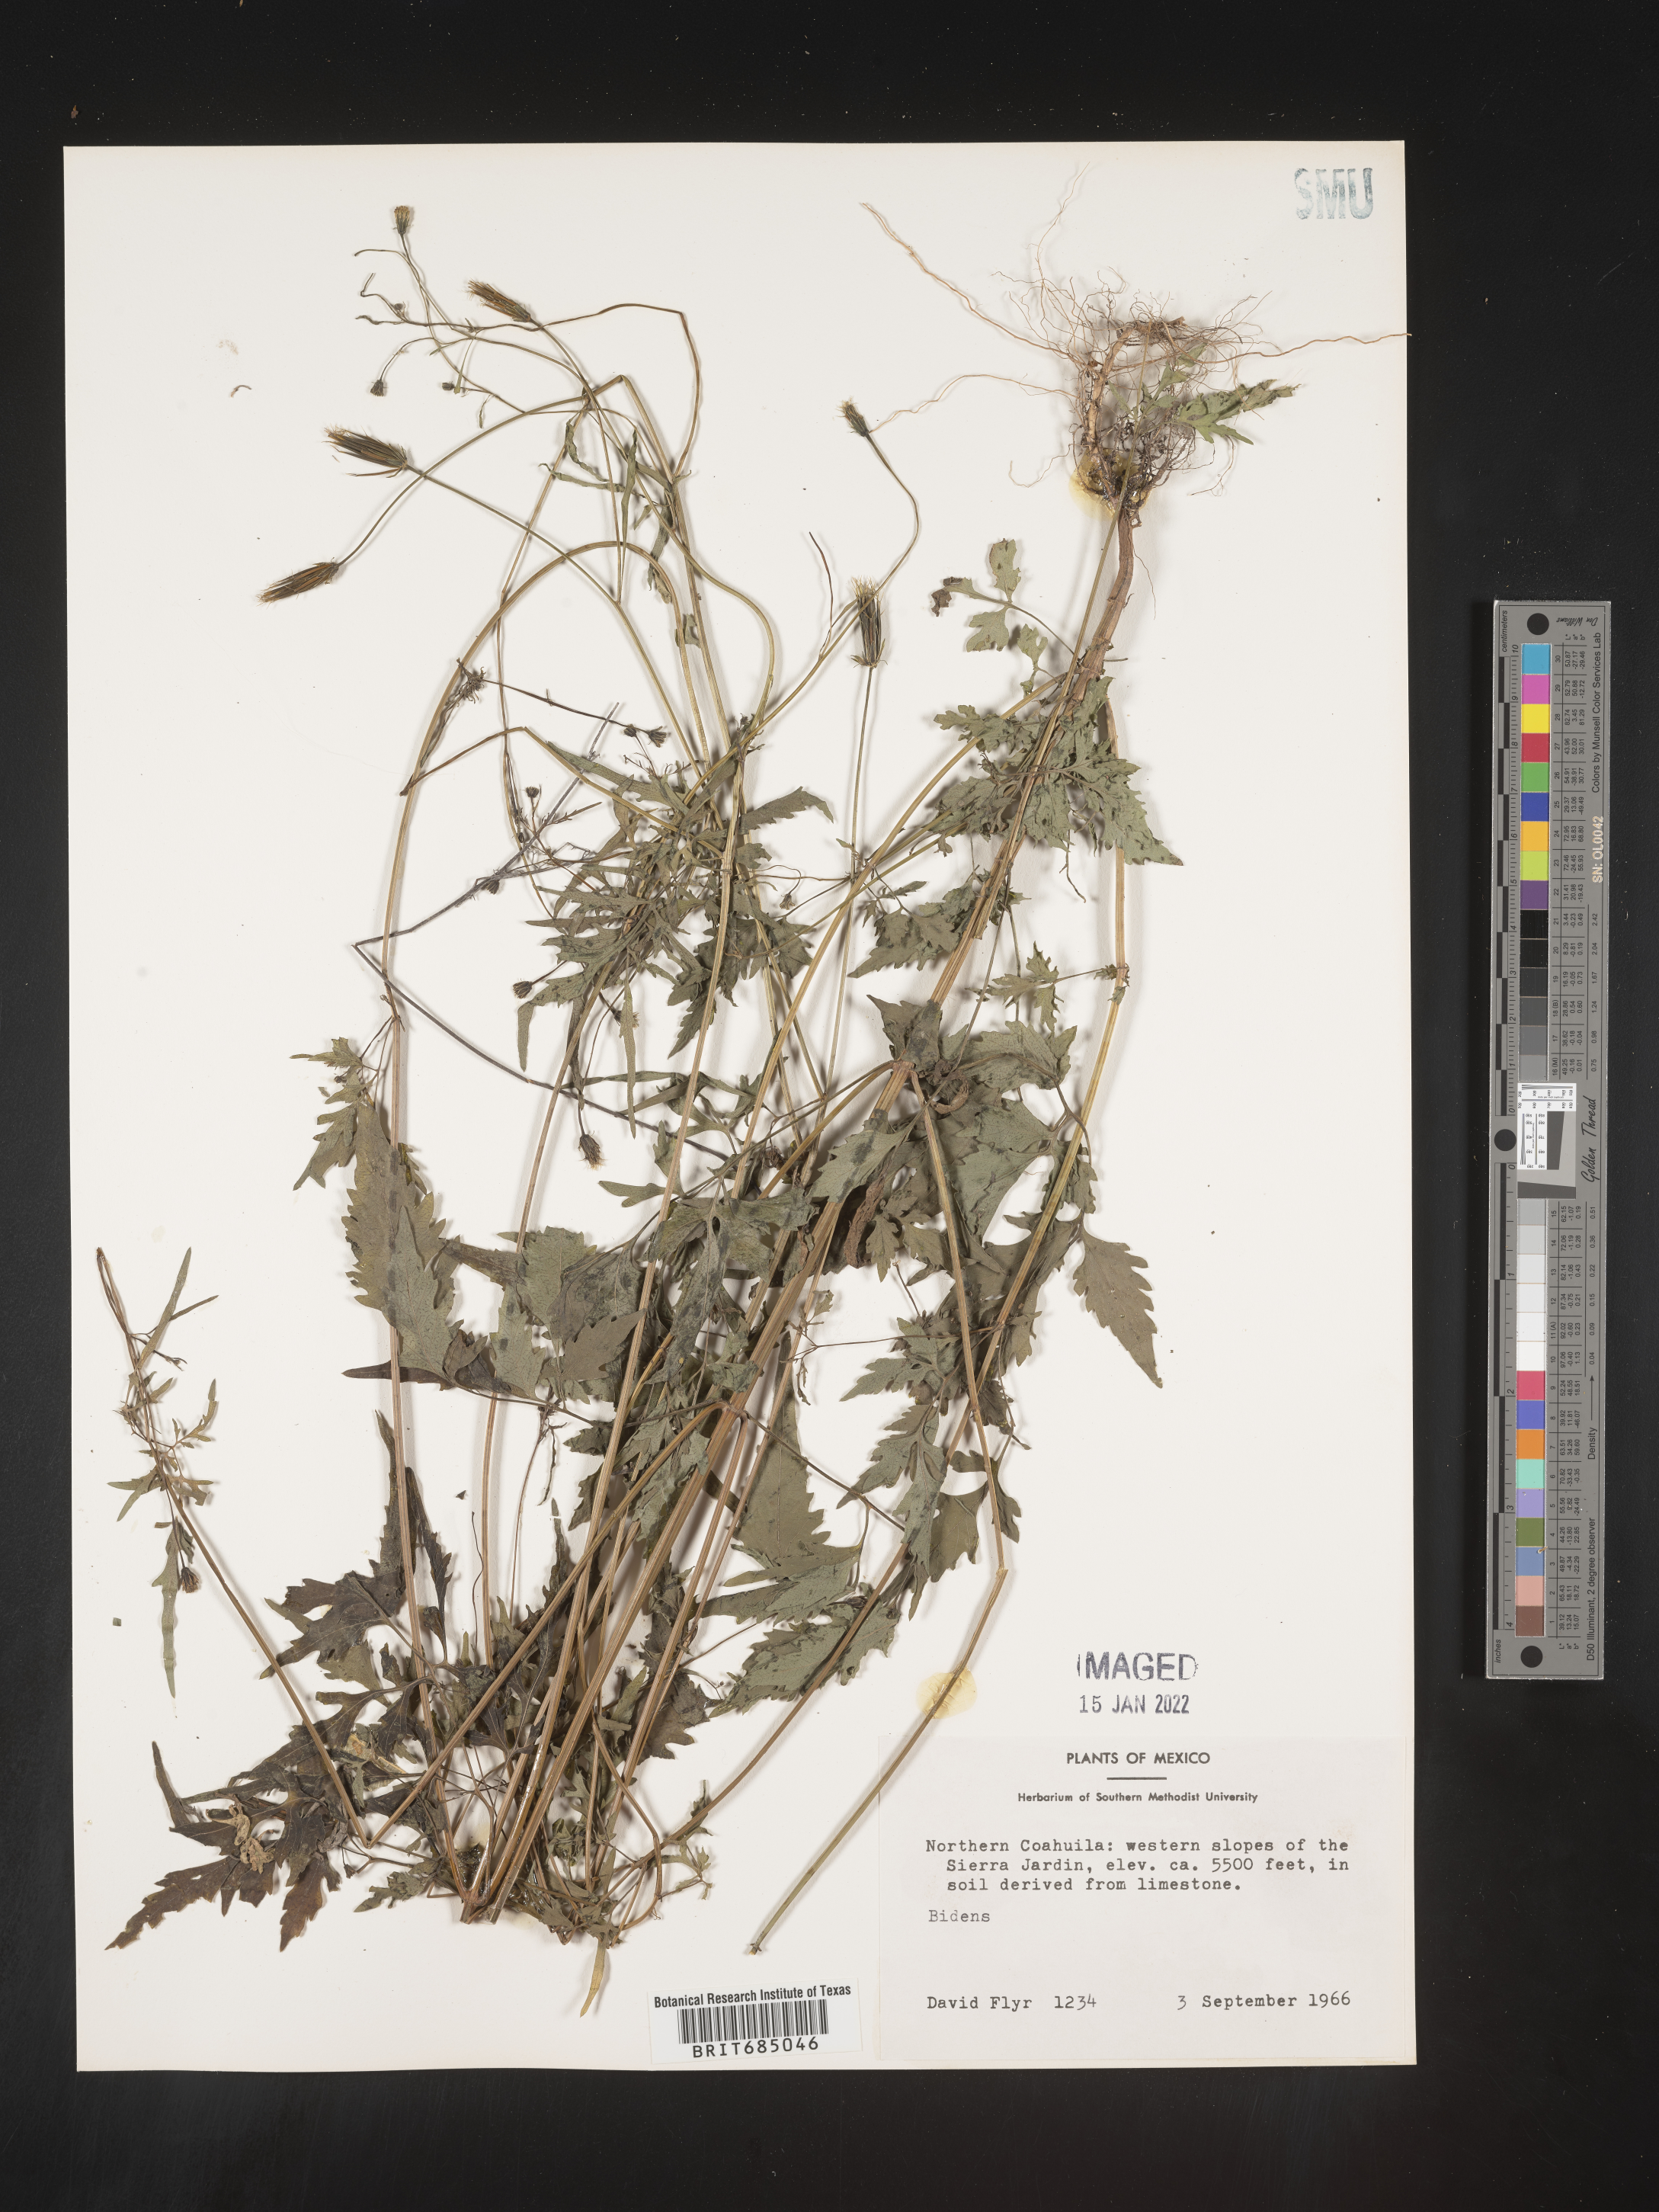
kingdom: Plantae
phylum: Tracheophyta
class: Magnoliopsida
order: Asterales
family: Asteraceae
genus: Bidens
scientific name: Bidens
